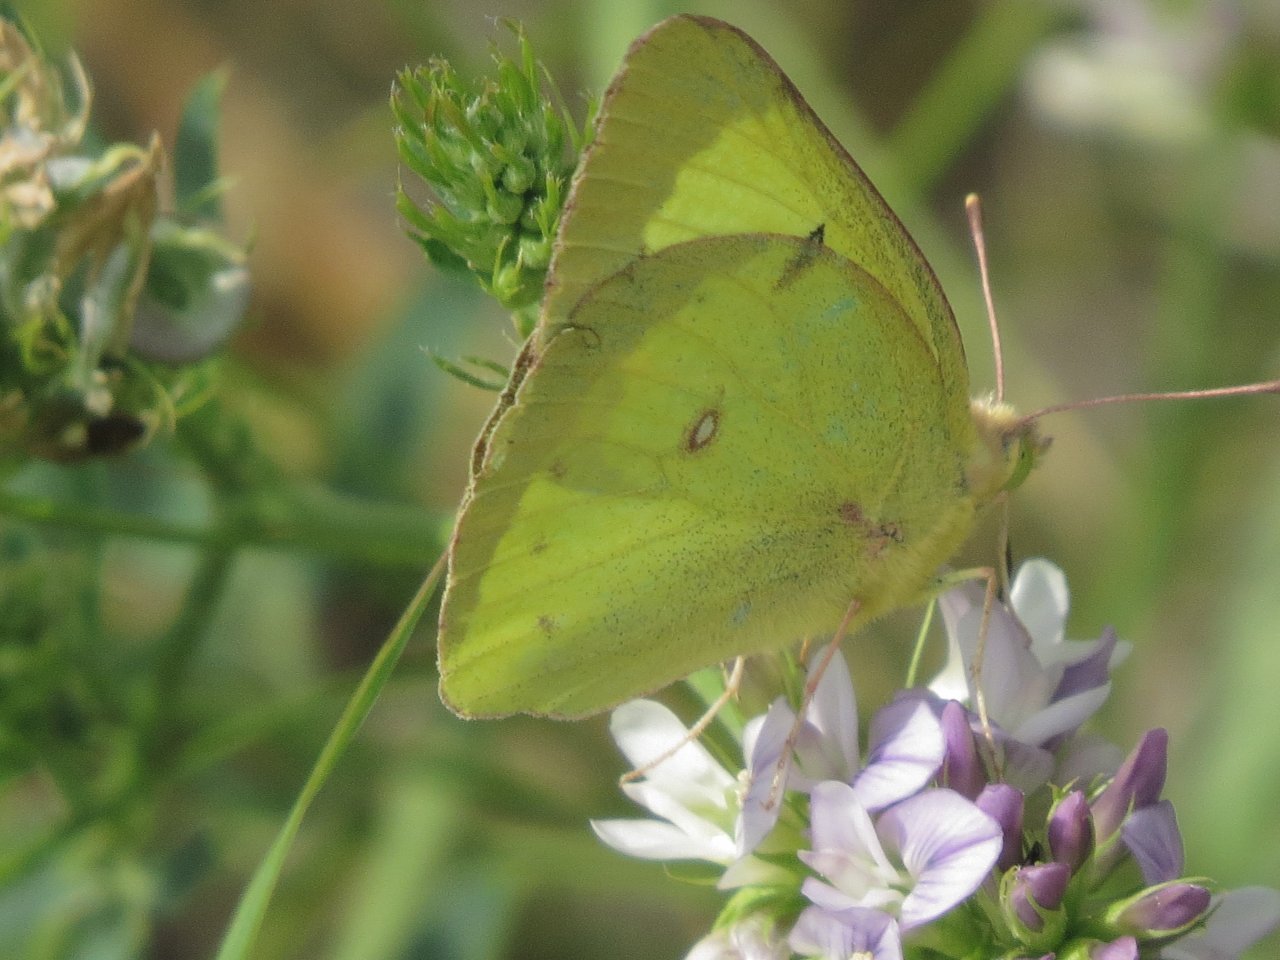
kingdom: Animalia
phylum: Arthropoda
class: Insecta
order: Lepidoptera
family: Pieridae
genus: Colias
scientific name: Colias philodice
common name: Clouded Sulphur
